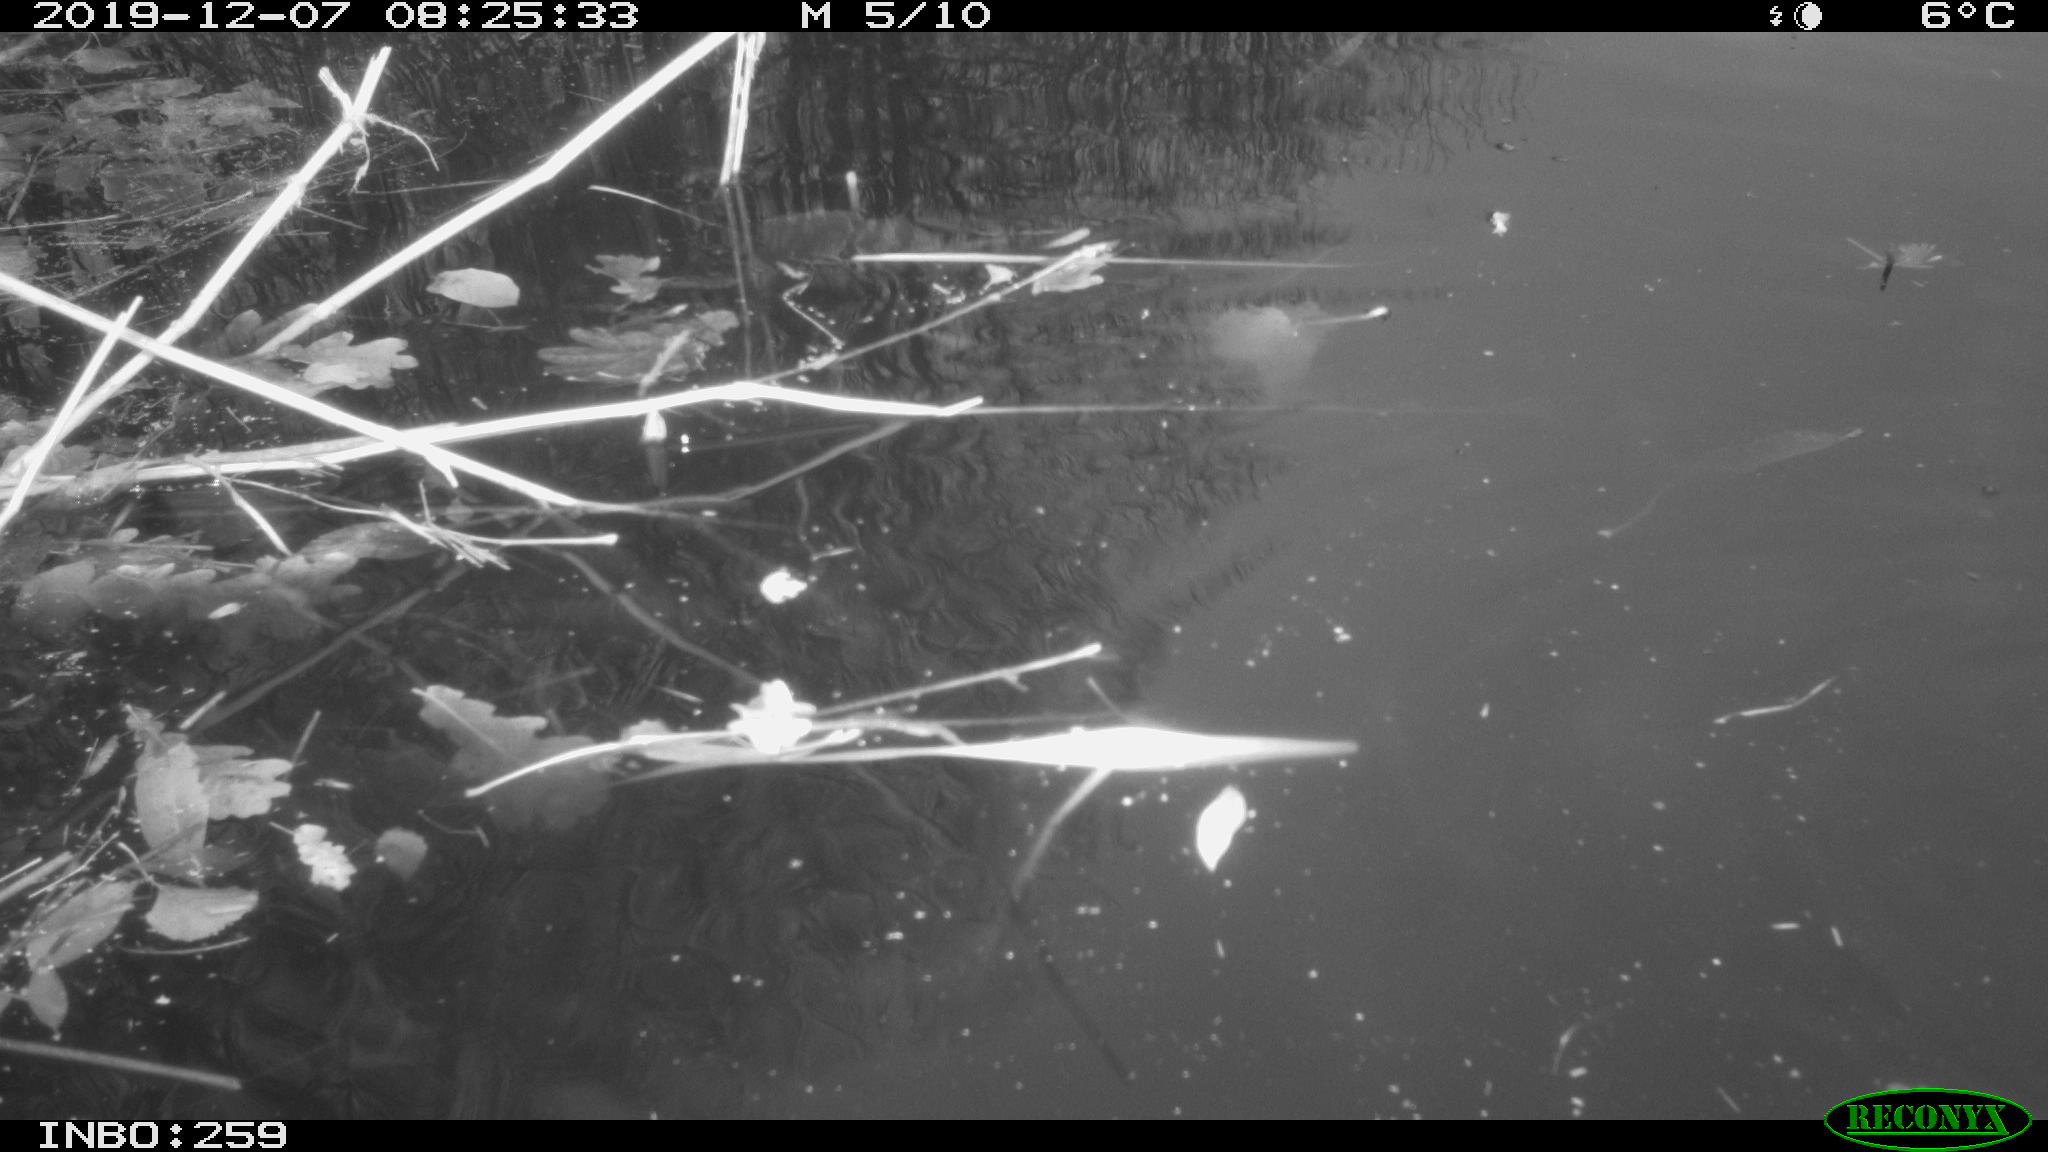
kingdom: Animalia
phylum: Chordata
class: Aves
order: Gruiformes
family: Rallidae
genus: Gallinula
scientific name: Gallinula chloropus
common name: Common moorhen
